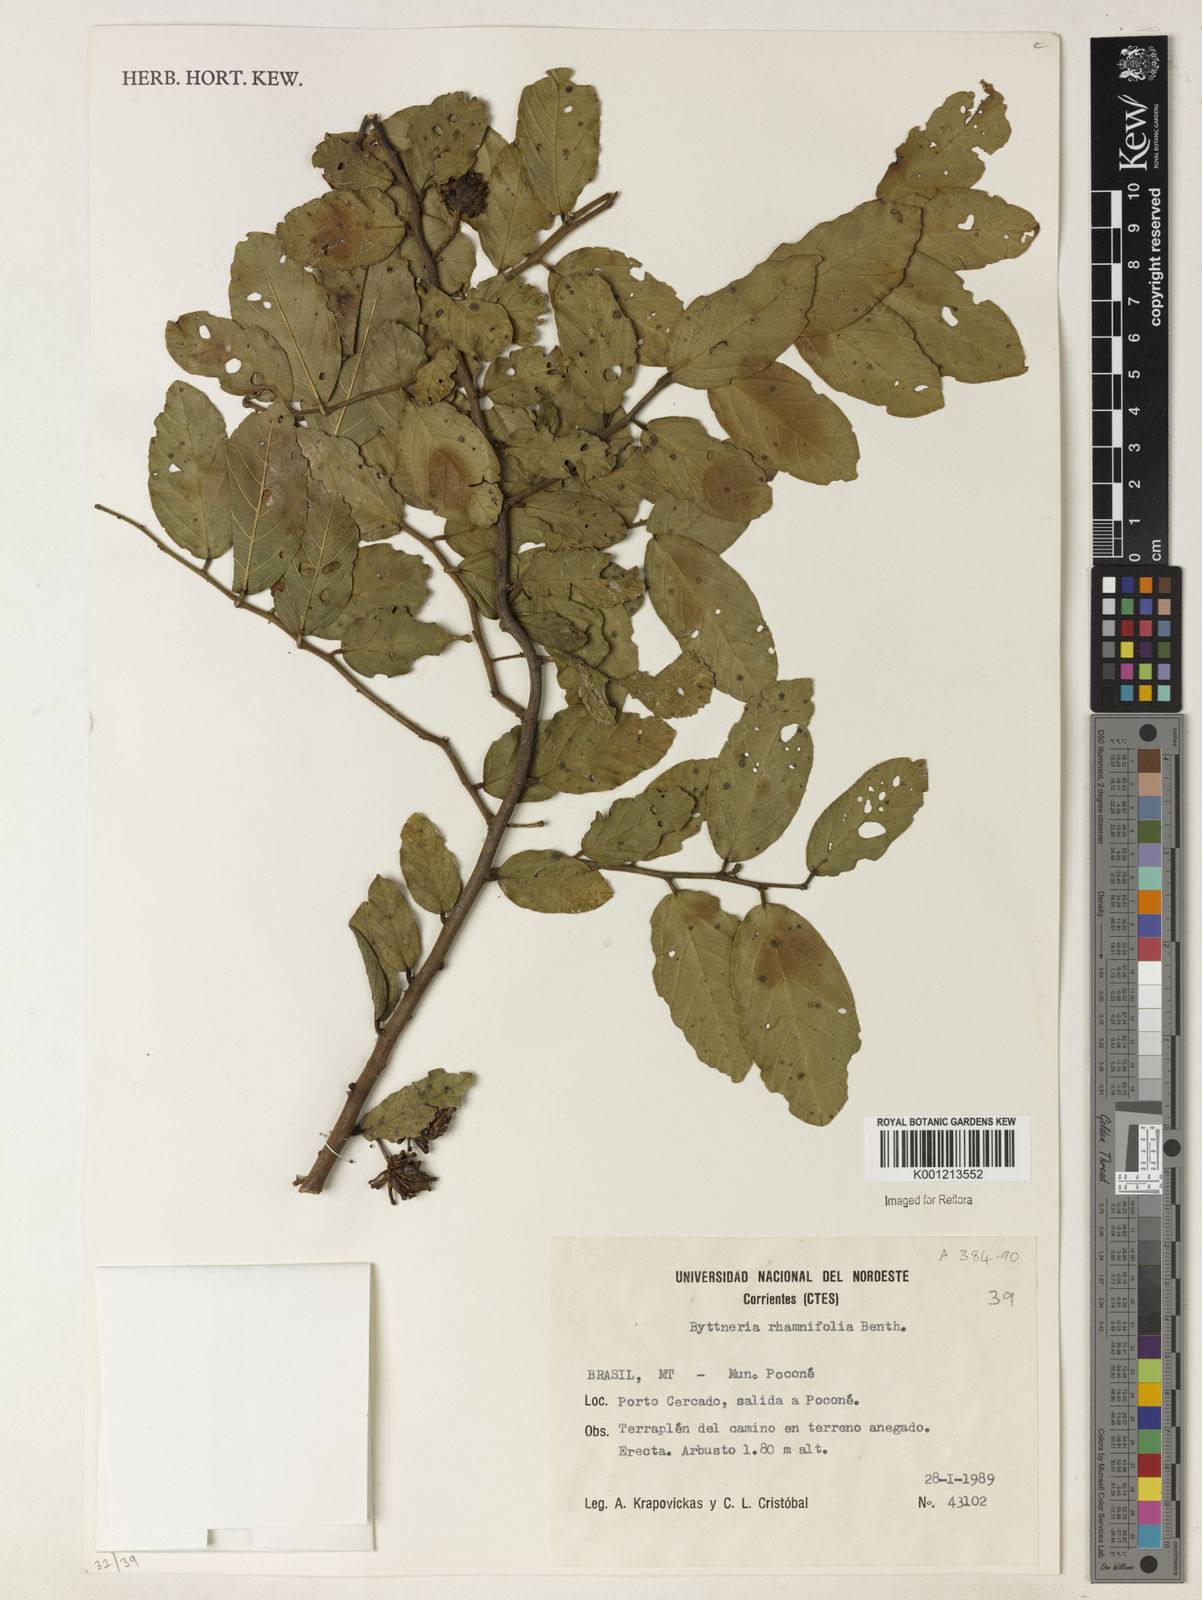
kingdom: Plantae
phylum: Tracheophyta
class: Magnoliopsida
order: Malvales
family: Malvaceae
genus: Byttneria
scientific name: Byttneria rhamnifolia
